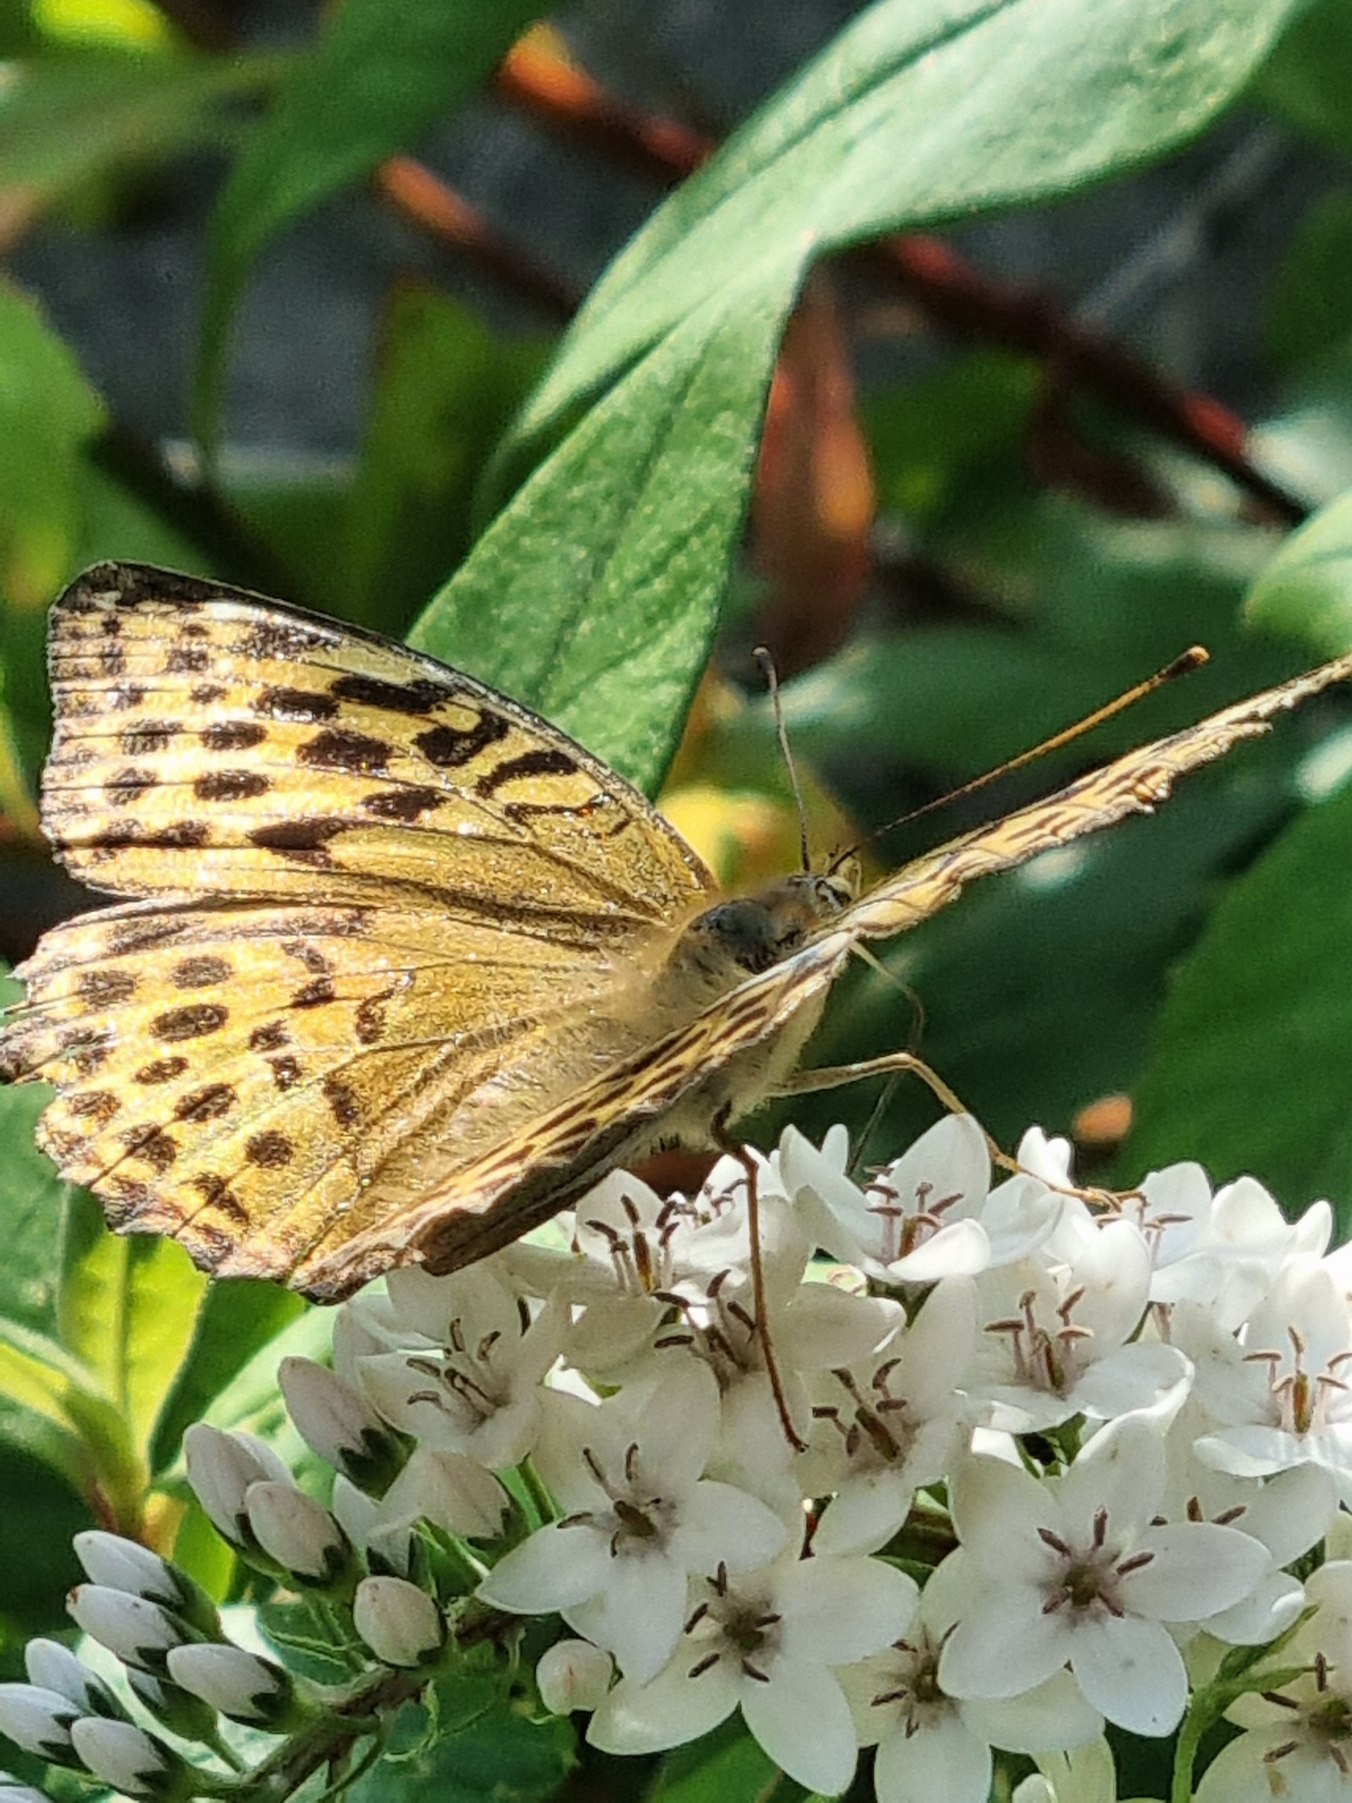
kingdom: Animalia
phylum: Arthropoda
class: Insecta
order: Lepidoptera
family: Nymphalidae
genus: Argynnis
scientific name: Argynnis paphia
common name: Kejserkåbe
